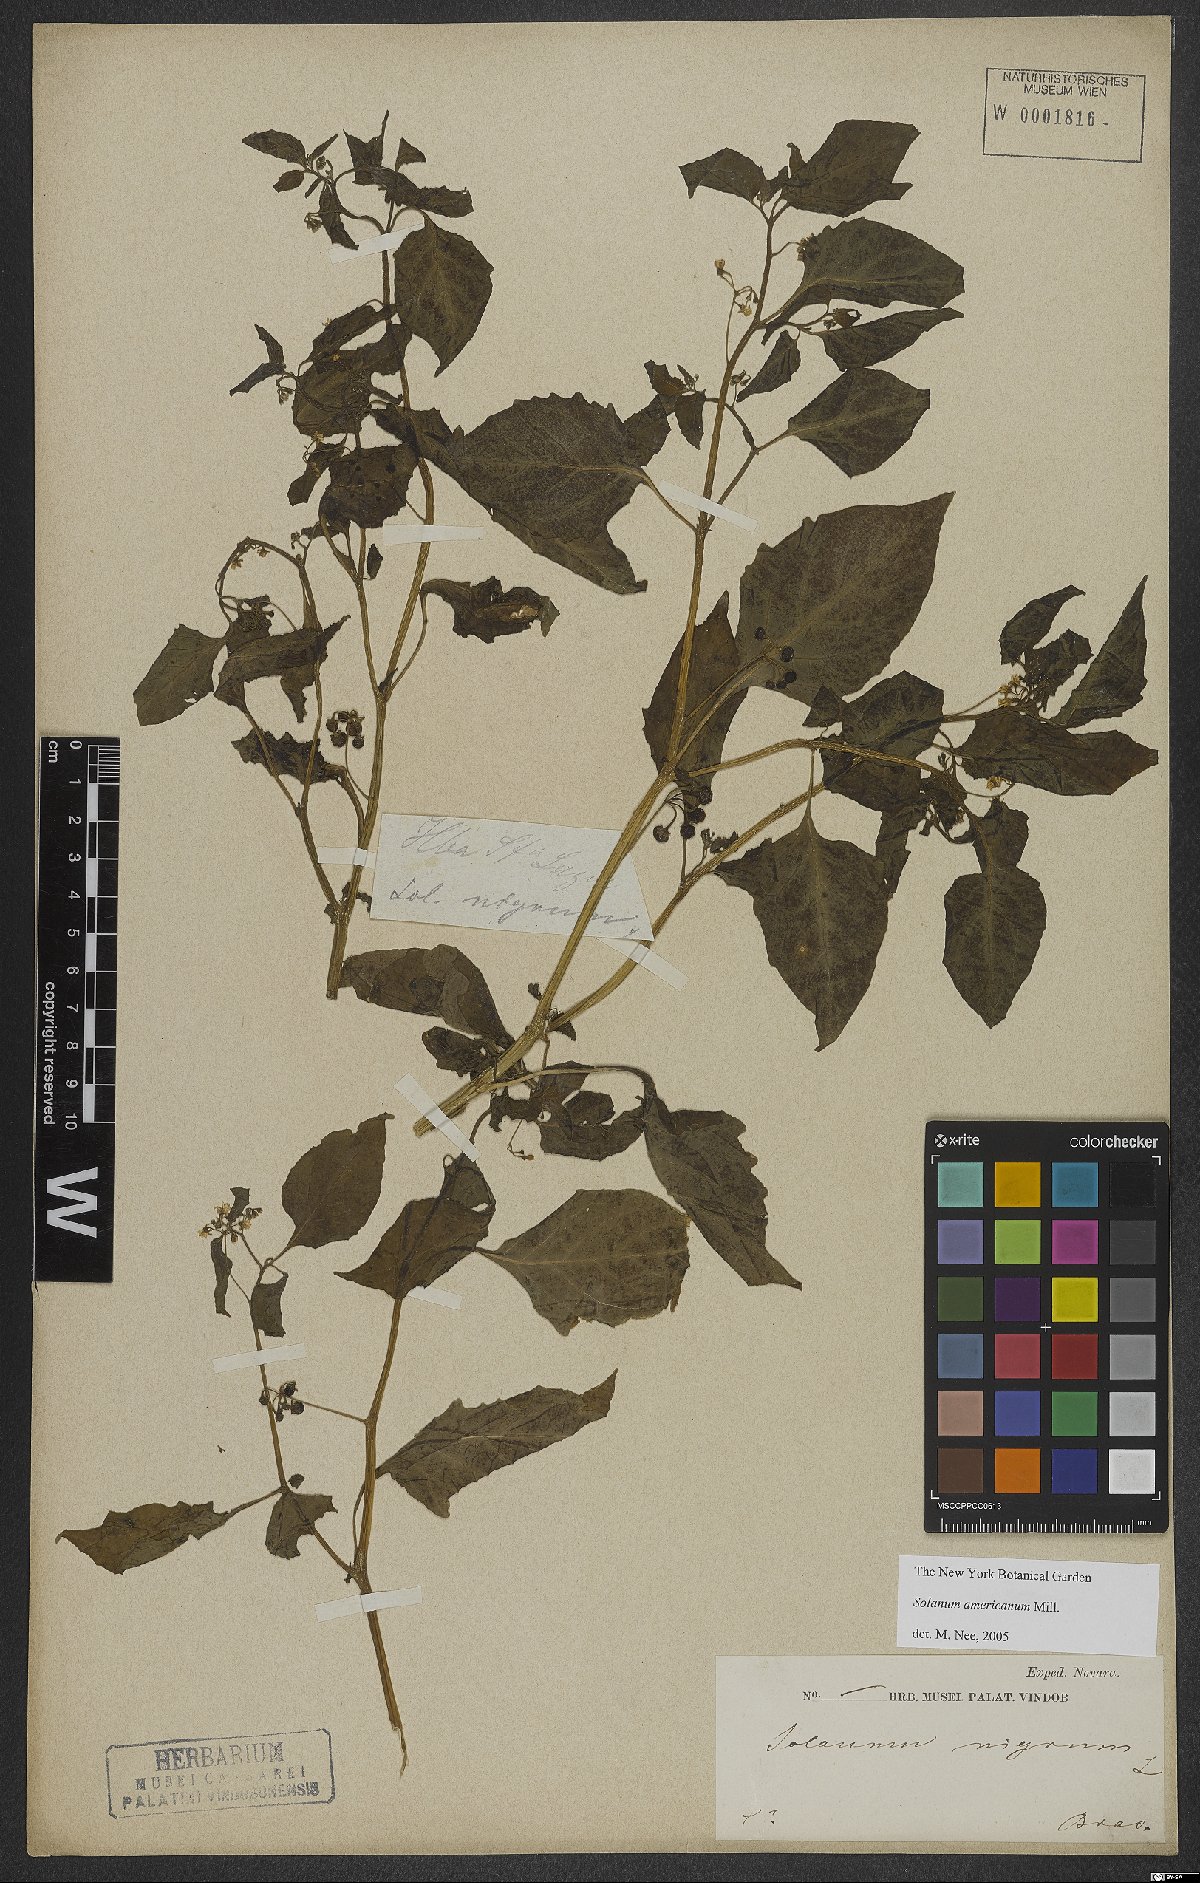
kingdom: Plantae
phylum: Tracheophyta
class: Magnoliopsida
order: Solanales
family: Solanaceae
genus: Solanum
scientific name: Solanum americanum
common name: American black nightshade
